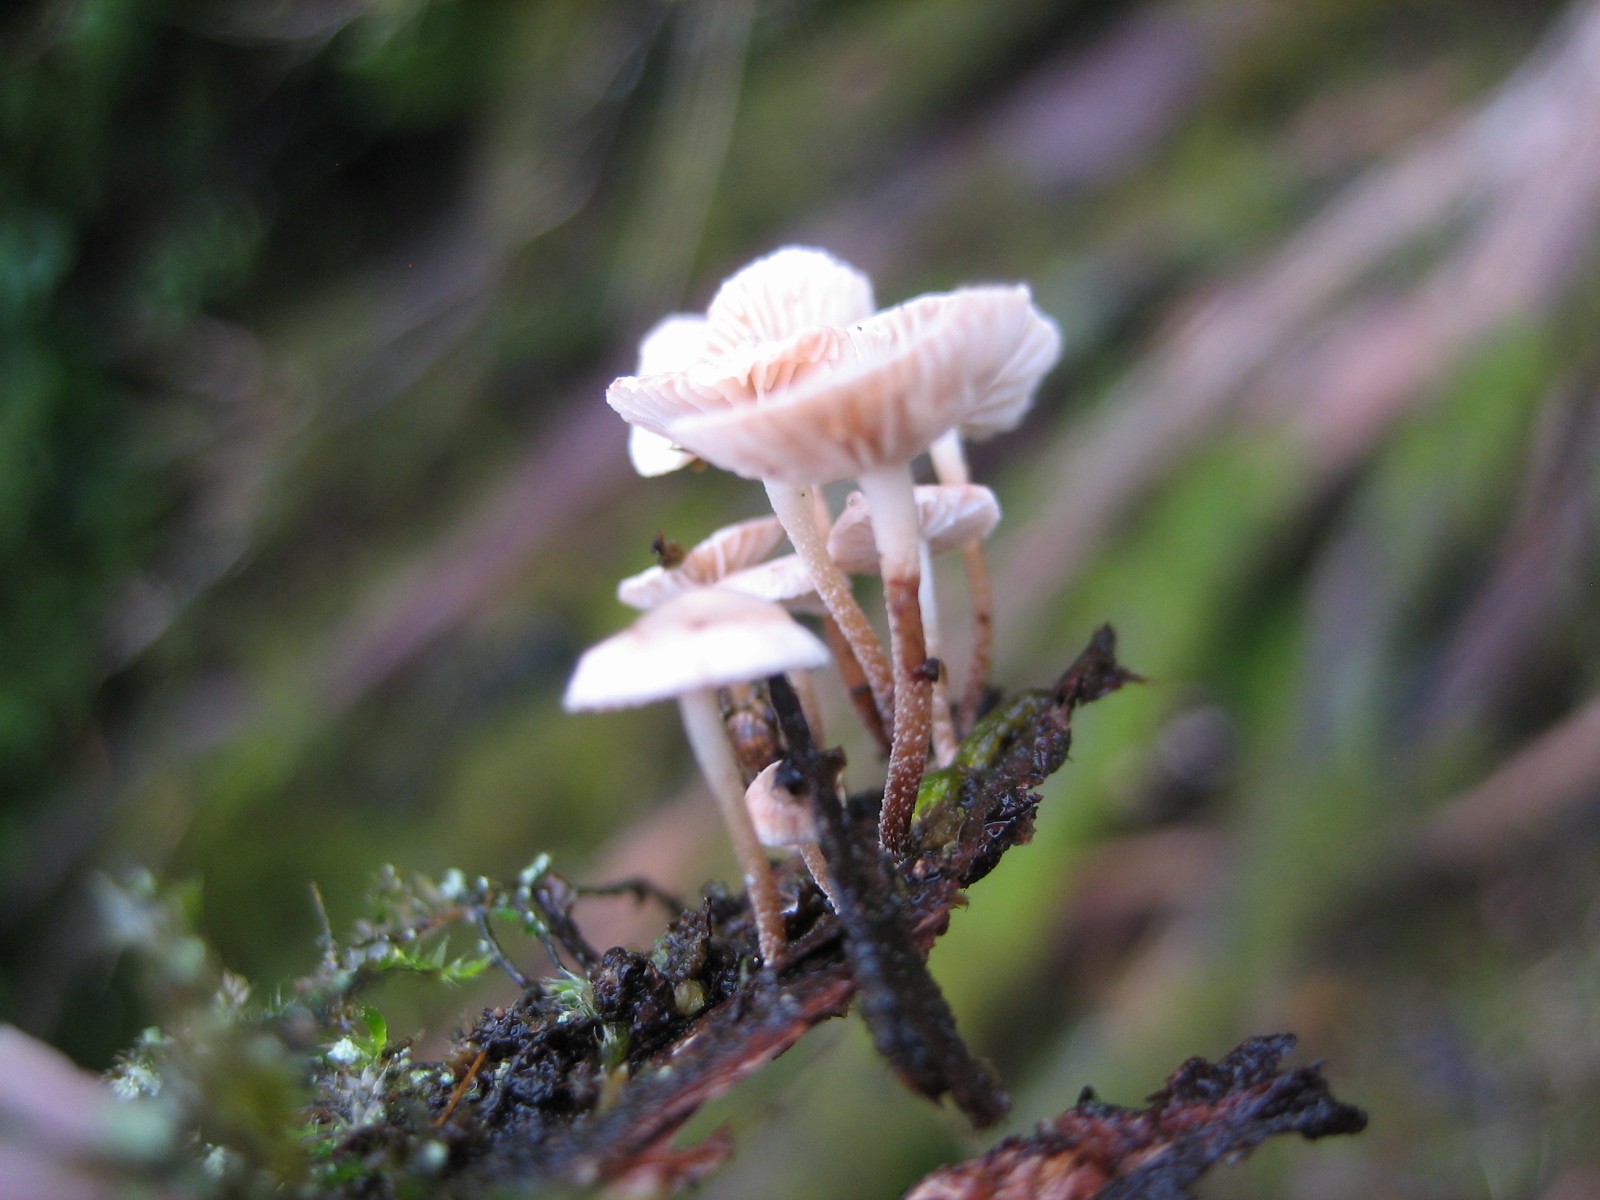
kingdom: Fungi
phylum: Basidiomycota
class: Agaricomycetes
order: Agaricales
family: Omphalotaceae
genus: Collybiopsis
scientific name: Collybiopsis ramealis
